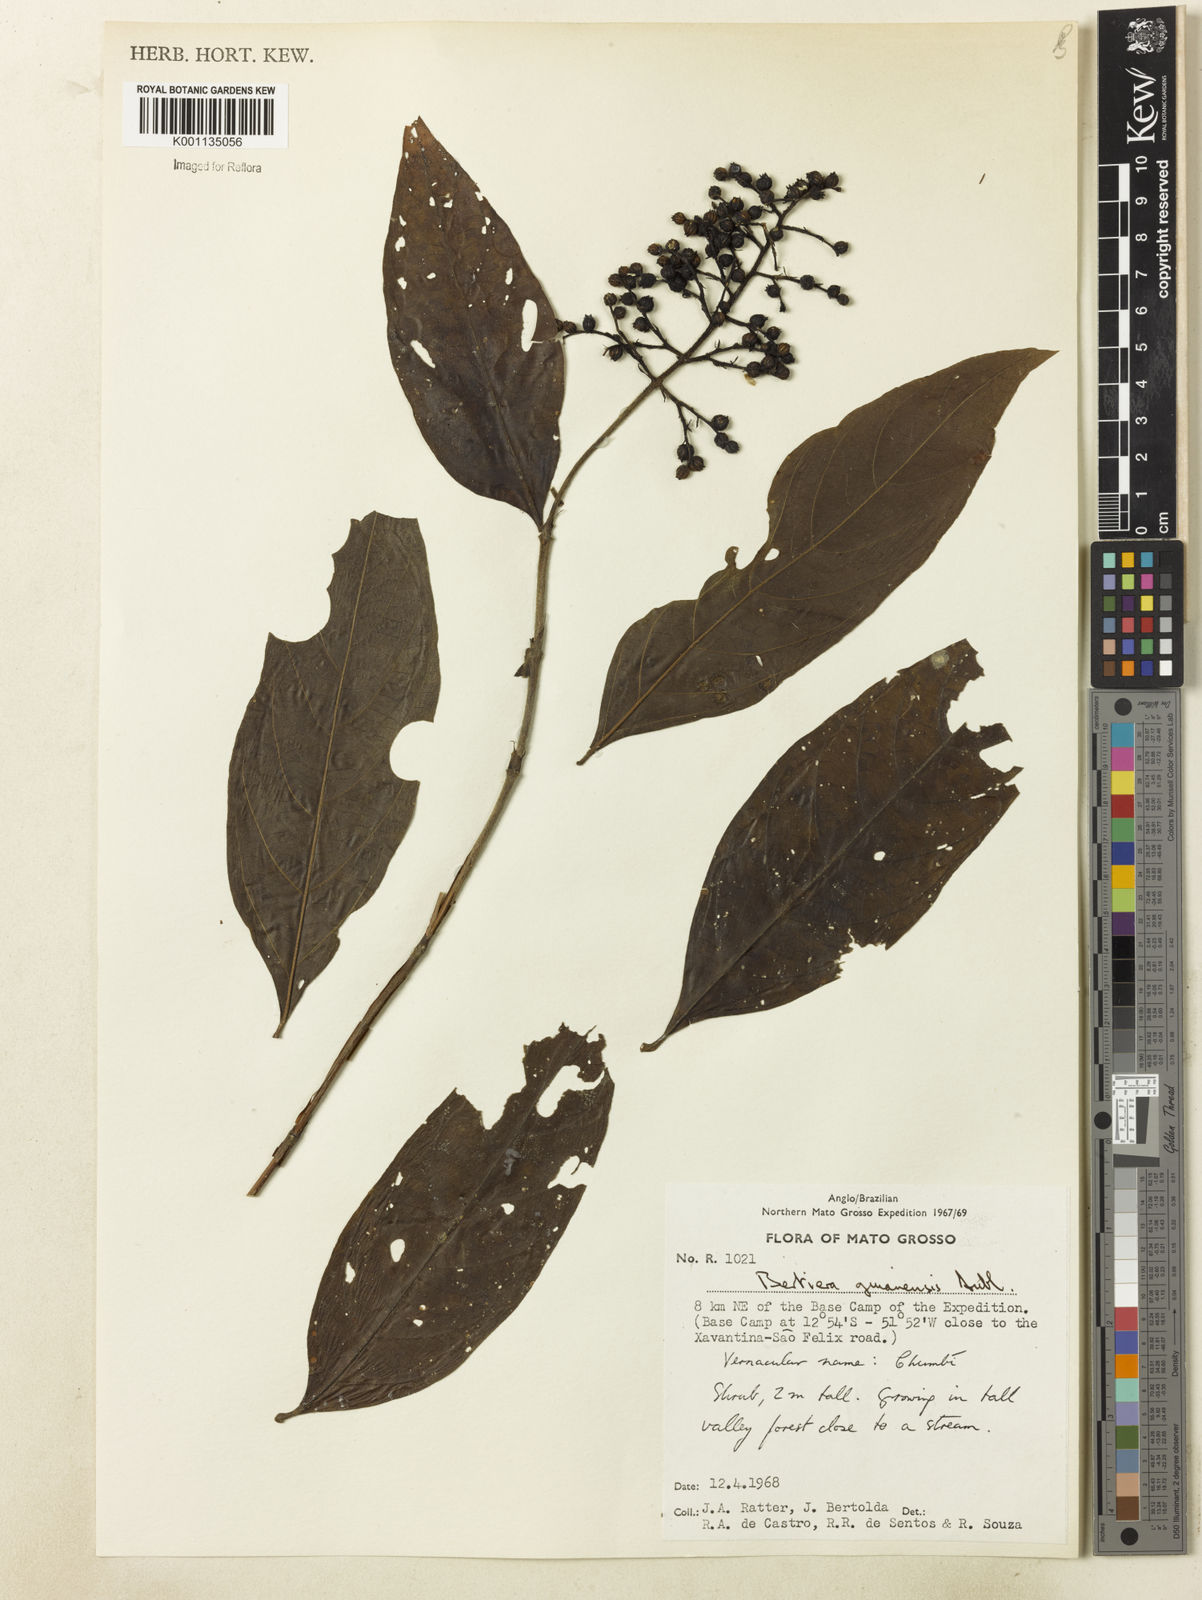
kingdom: Plantae
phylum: Tracheophyta
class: Magnoliopsida
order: Gentianales
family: Rubiaceae
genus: Bertiera
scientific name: Bertiera guianensis
